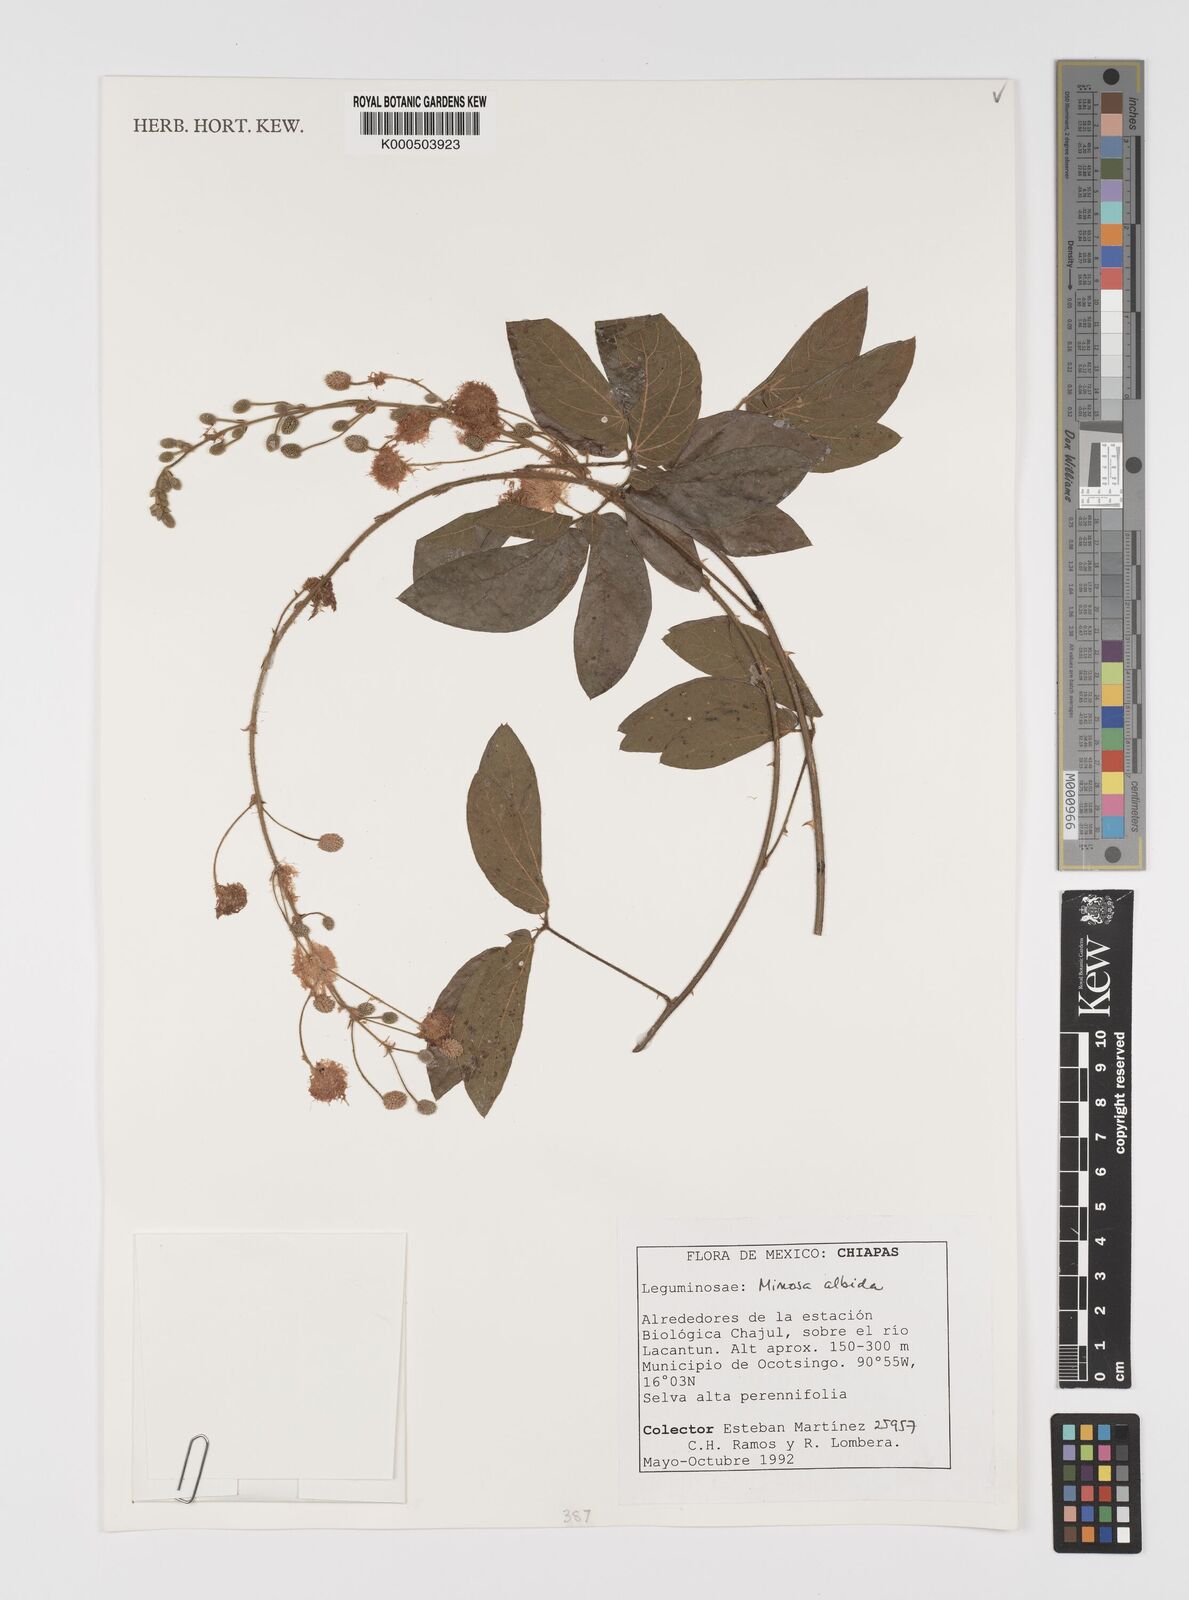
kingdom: Plantae
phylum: Tracheophyta
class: Magnoliopsida
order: Fabales
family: Fabaceae
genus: Mimosa
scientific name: Mimosa albida
